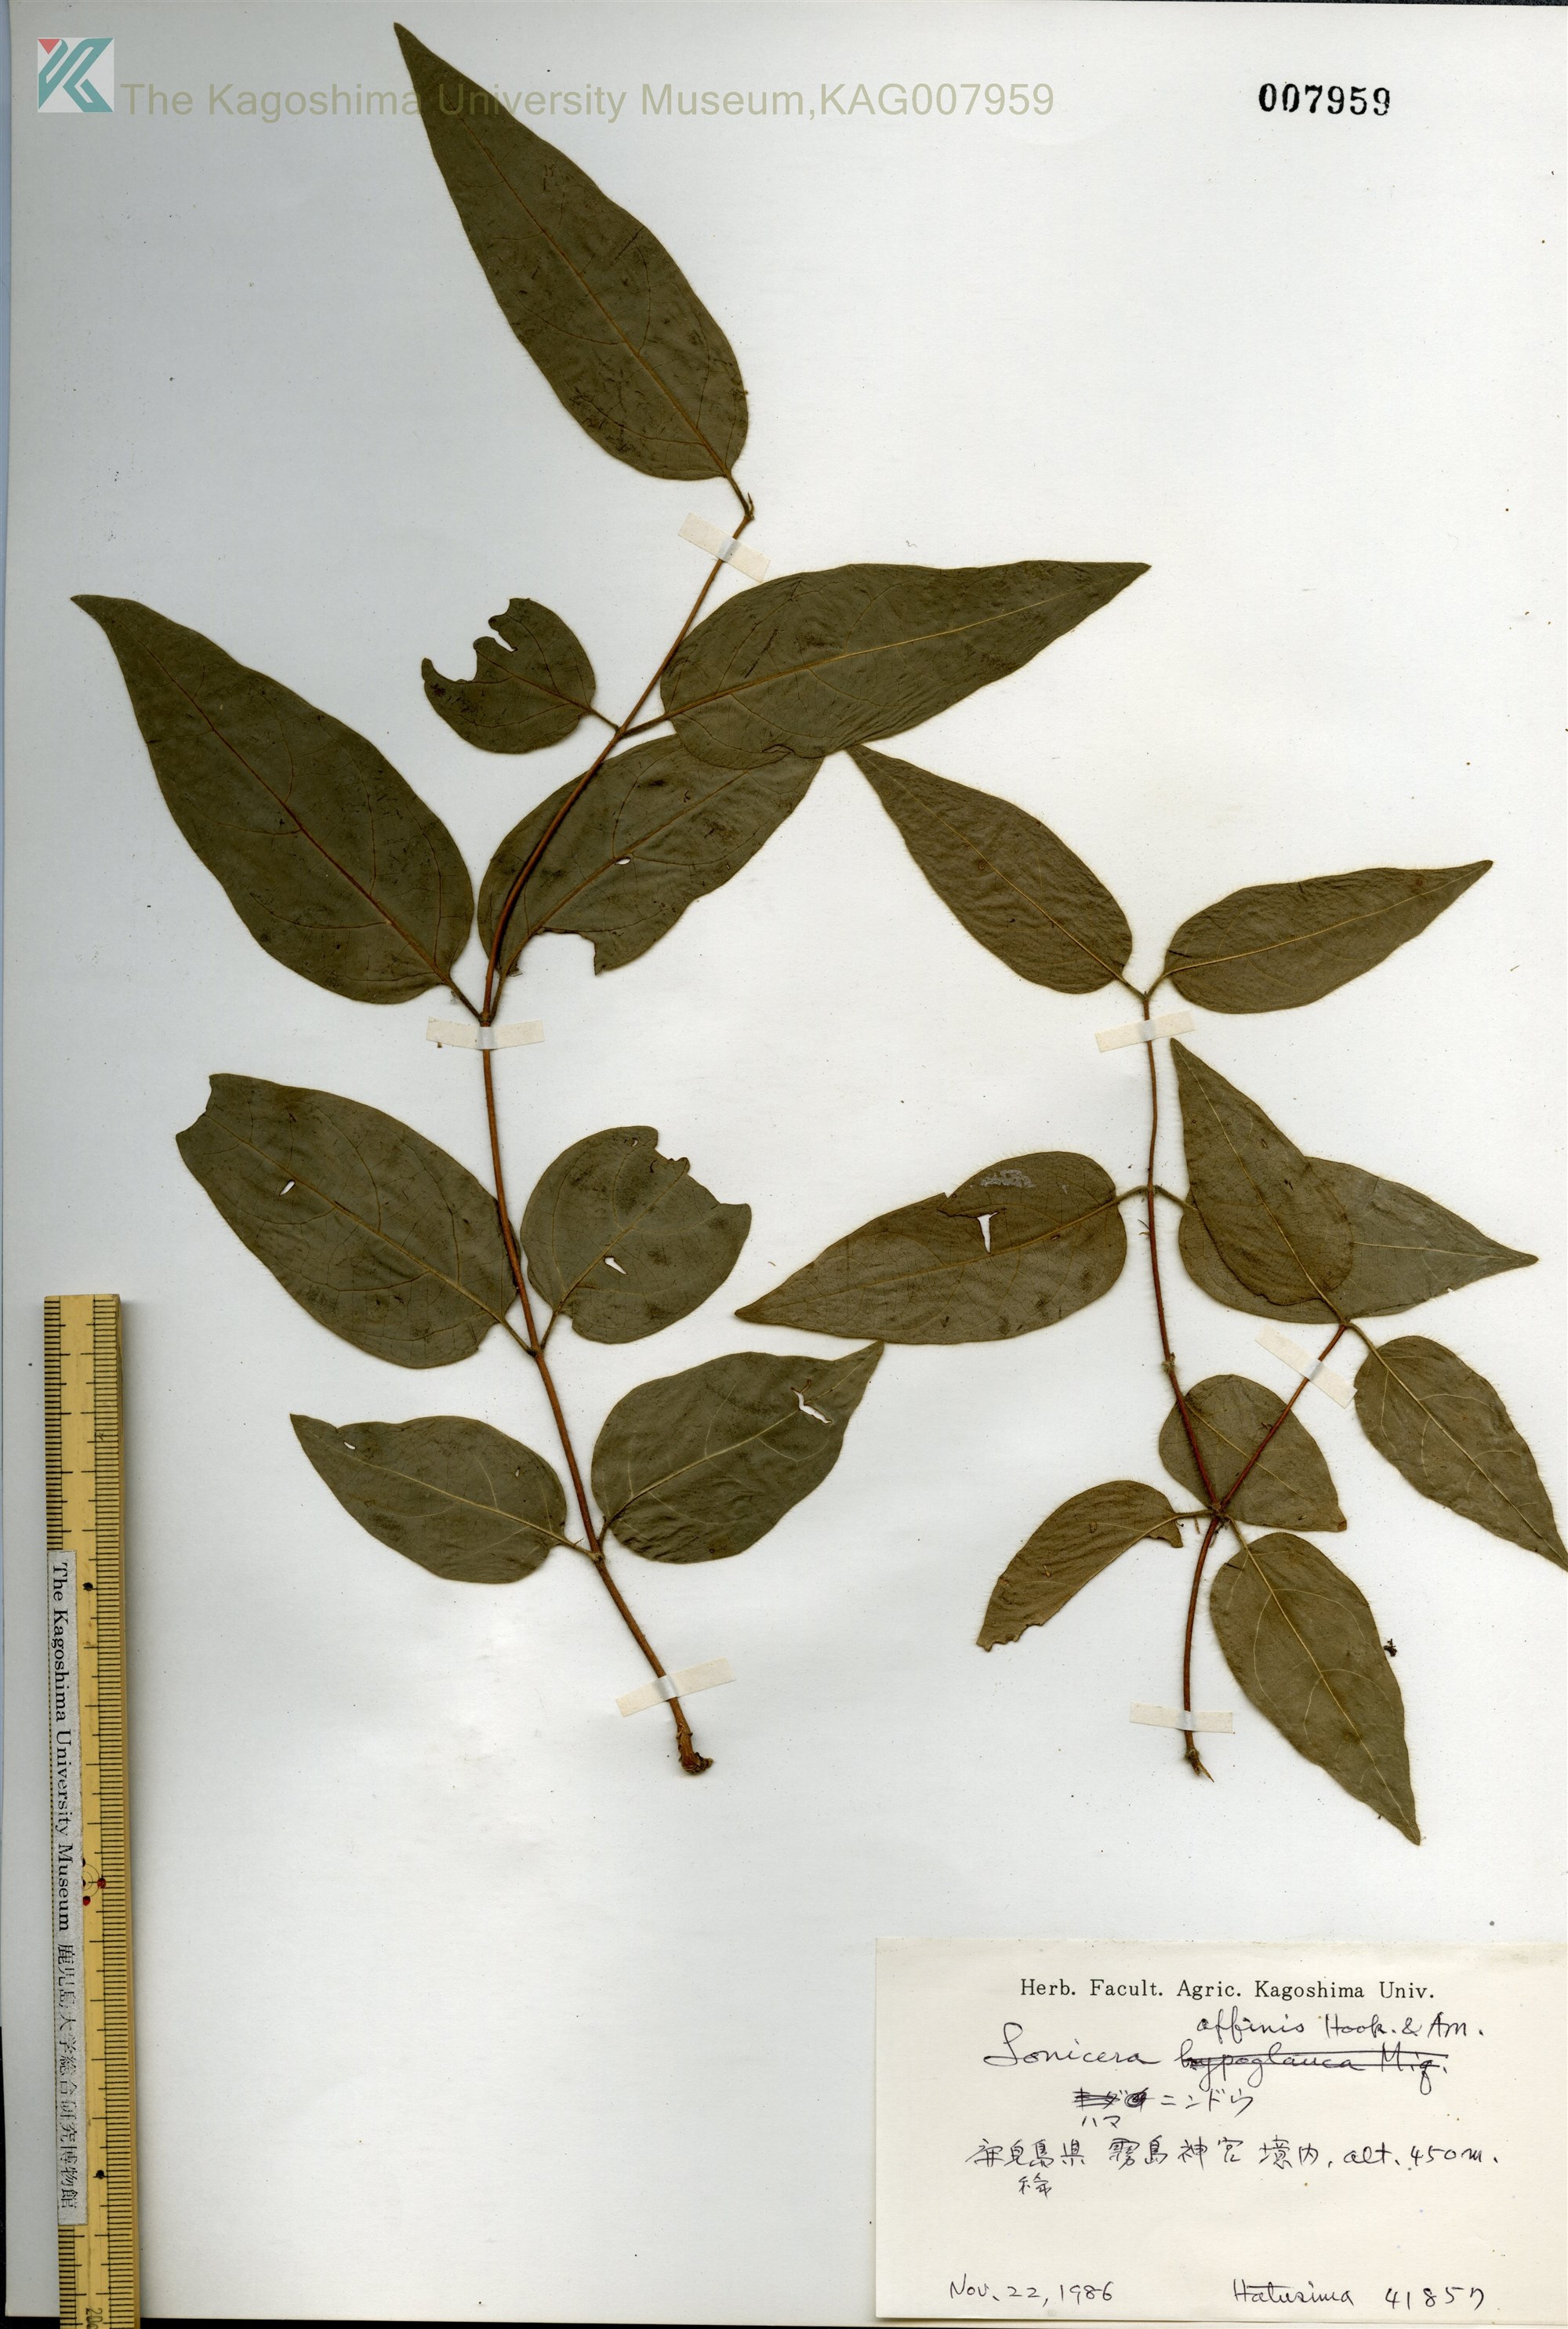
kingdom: Plantae
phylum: Tracheophyta
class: Magnoliopsida
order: Dipsacales
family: Caprifoliaceae
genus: Lonicera
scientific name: Lonicera affinis
